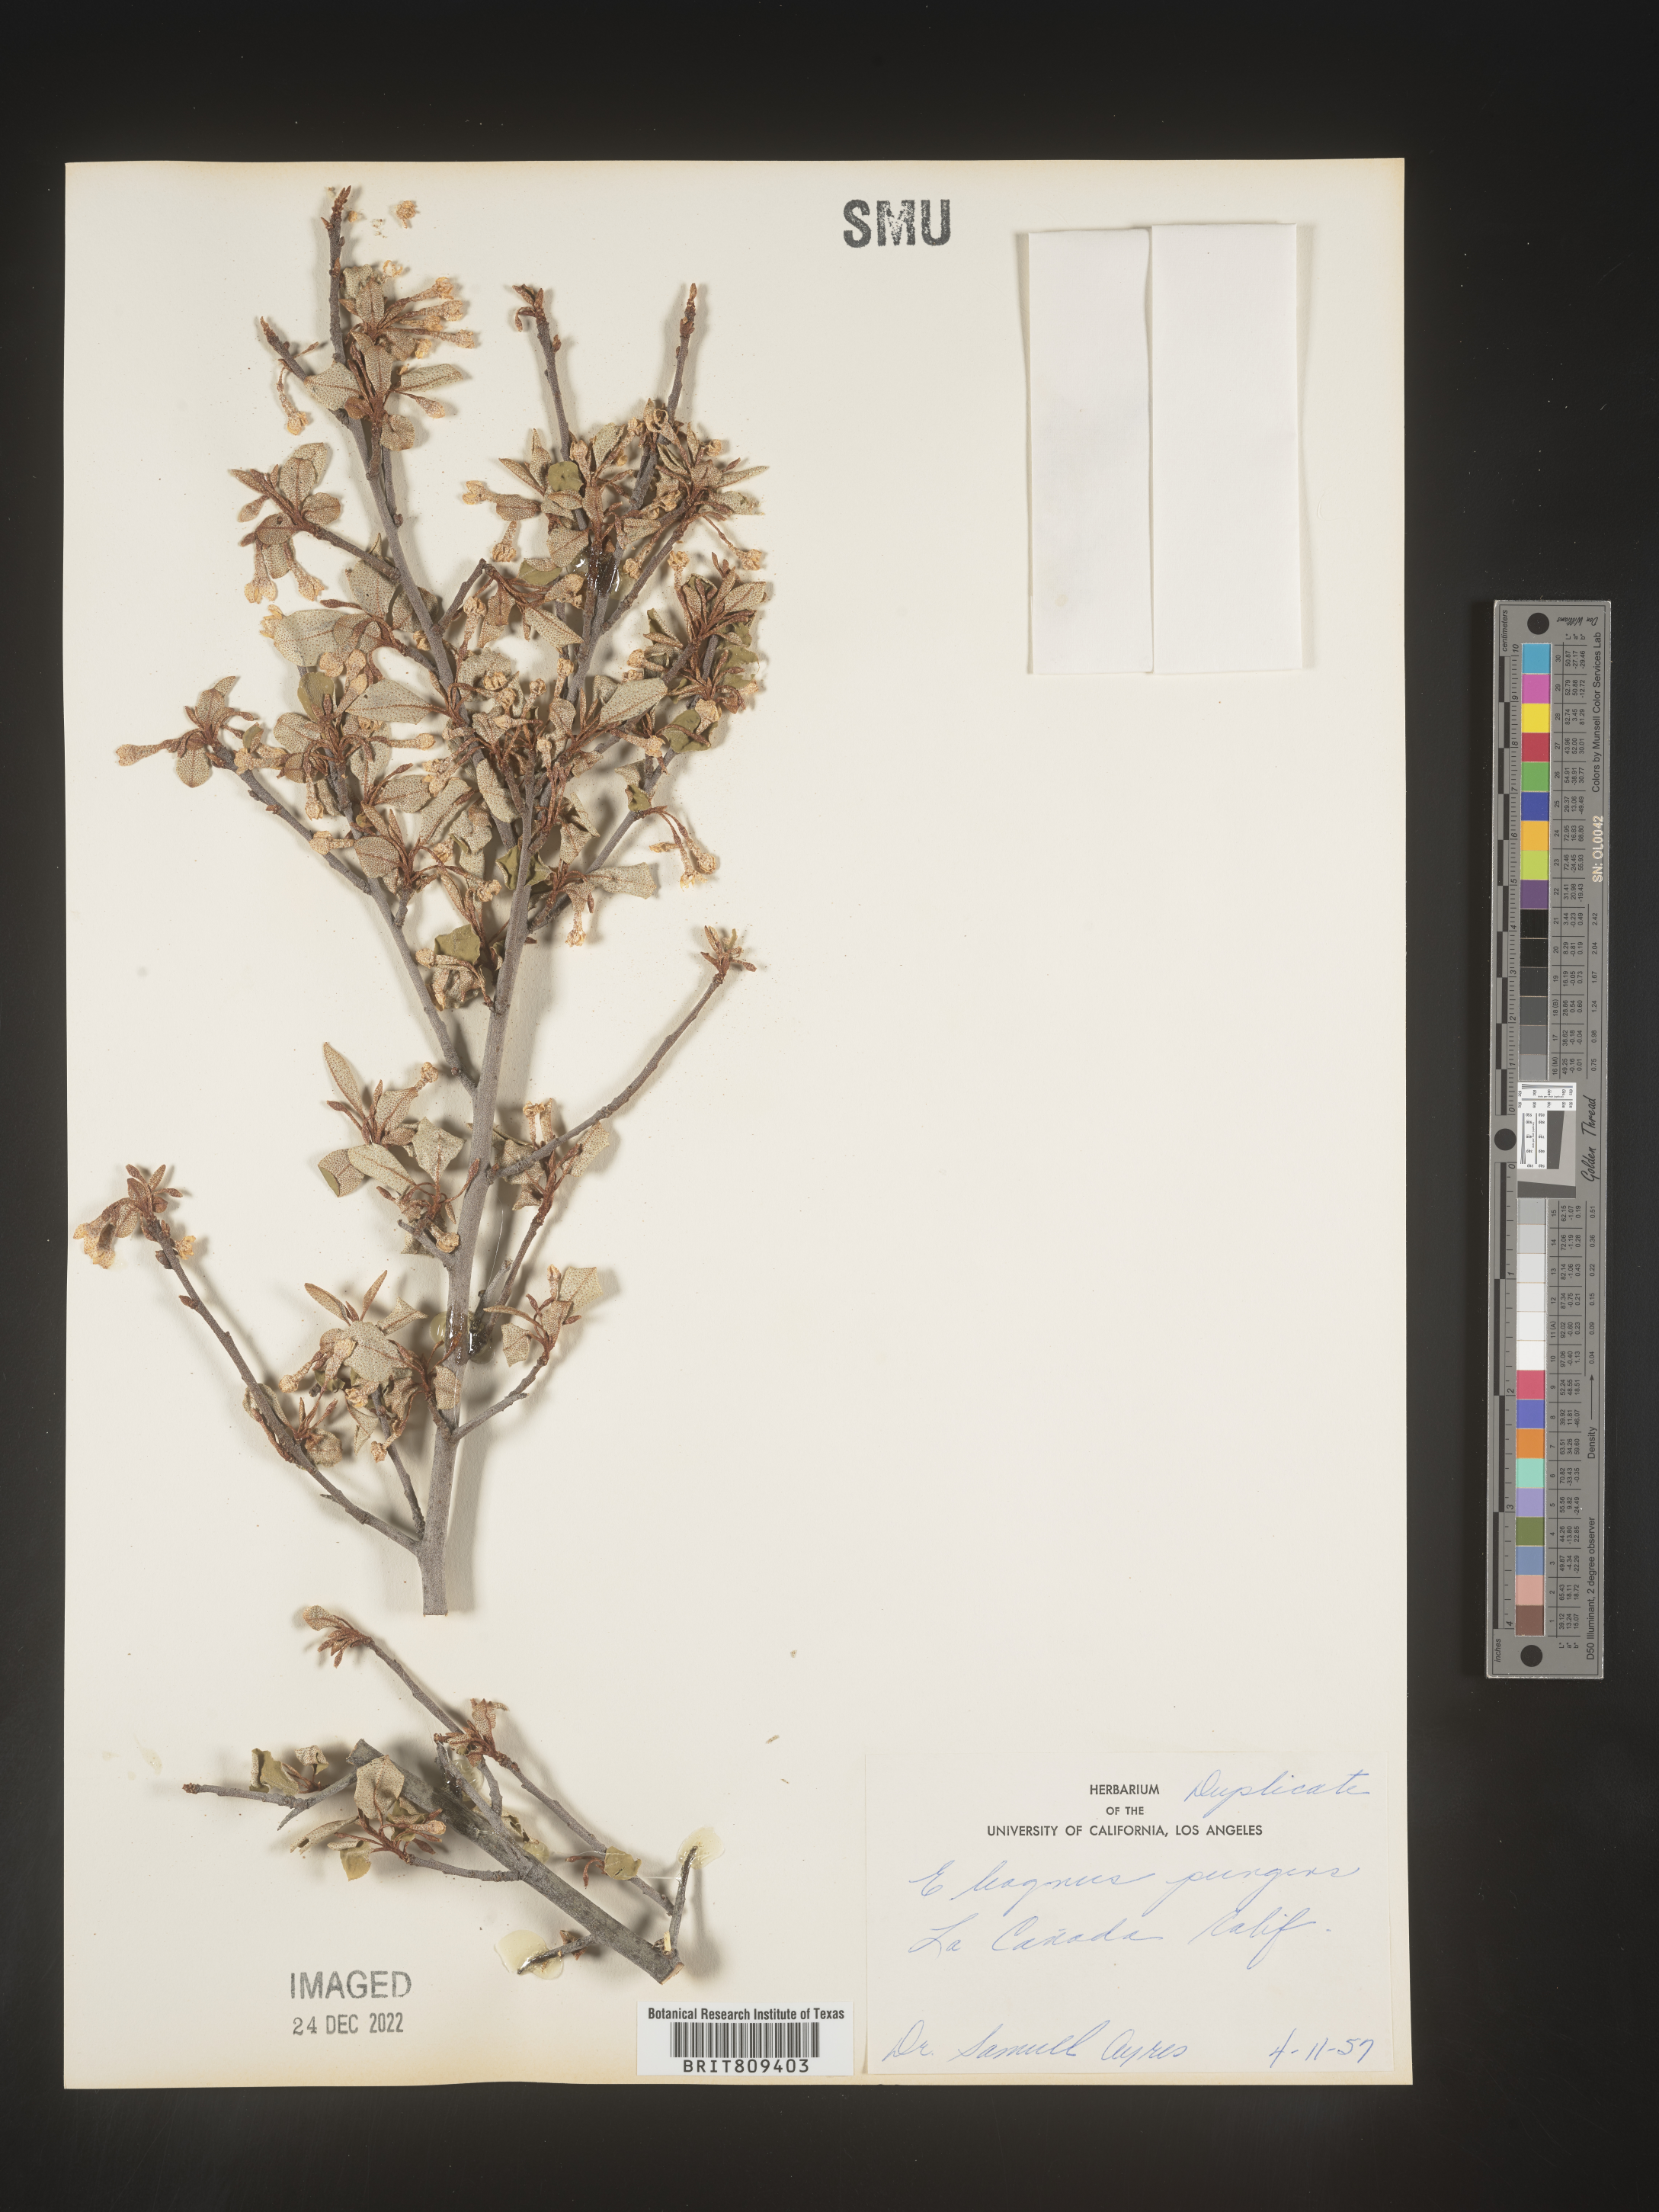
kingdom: Plantae
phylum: Tracheophyta
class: Magnoliopsida
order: Rosales
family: Elaeagnaceae
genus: Elaeagnus
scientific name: Elaeagnus
